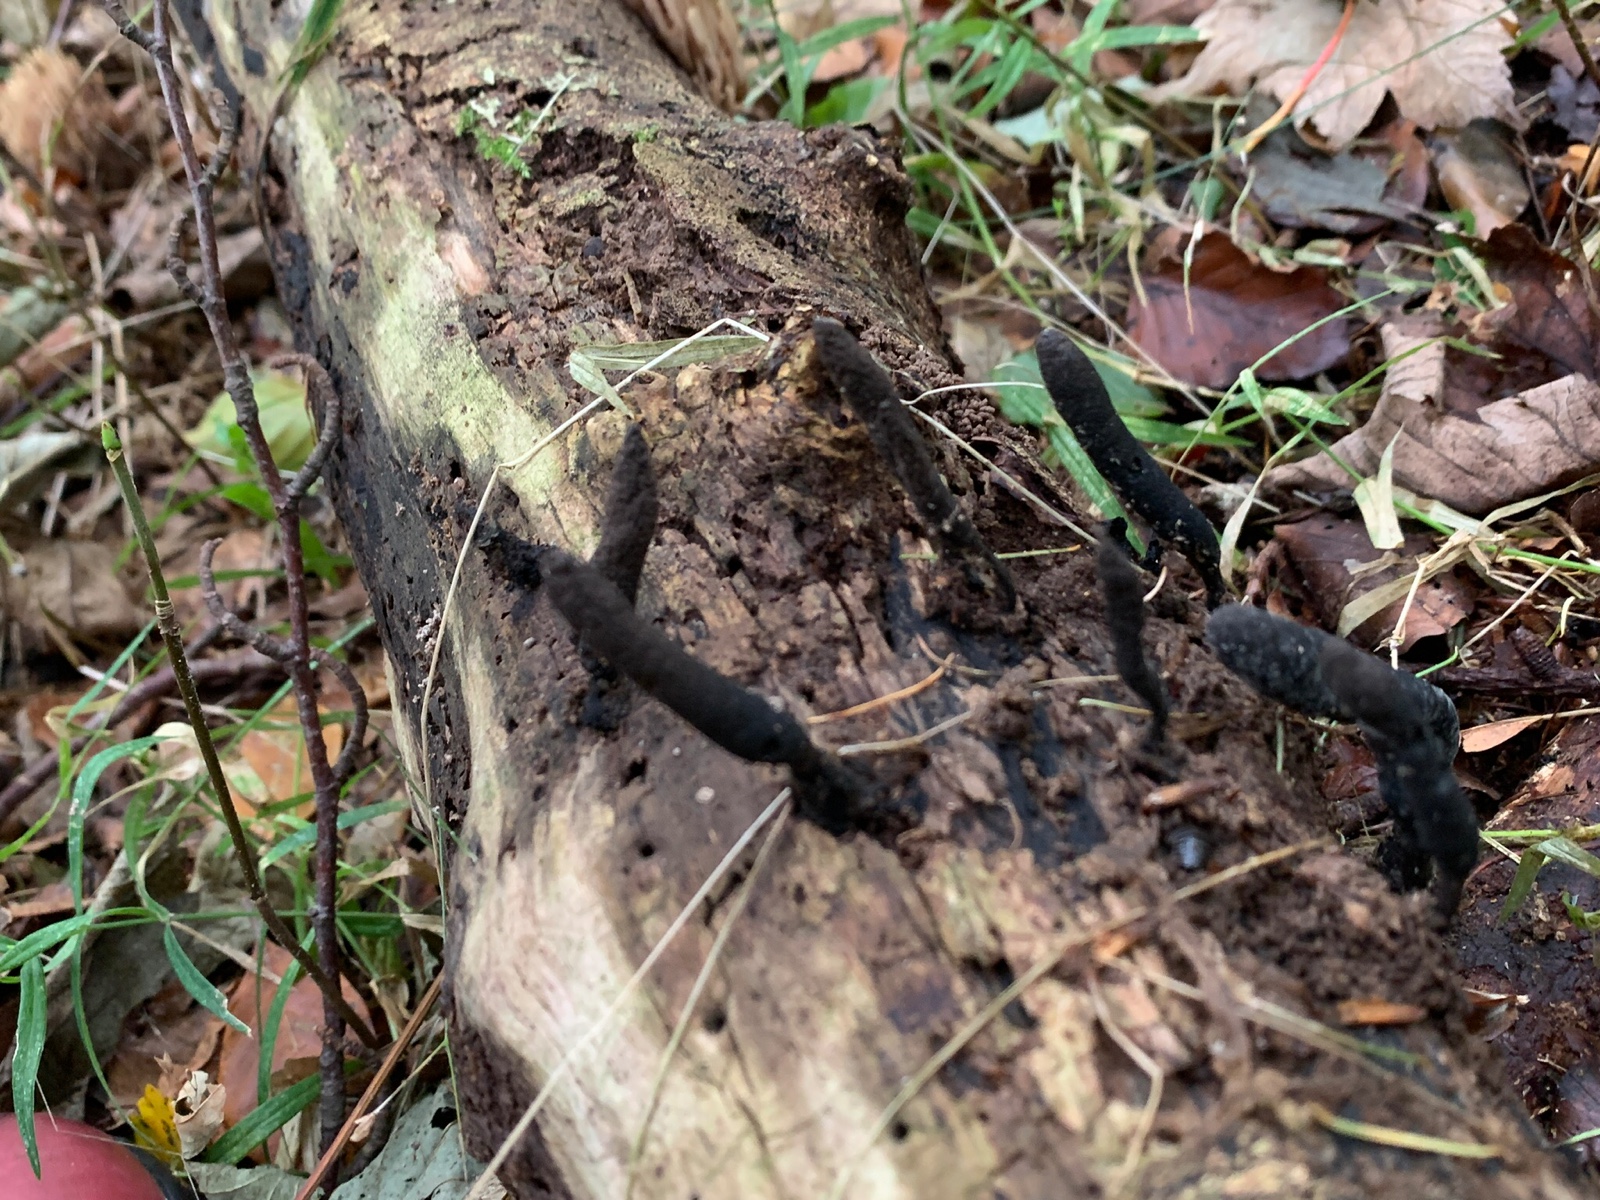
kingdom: Fungi
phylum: Ascomycota
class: Sordariomycetes
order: Xylariales
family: Xylariaceae
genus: Xylaria
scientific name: Xylaria longipes
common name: slank stødsvamp
